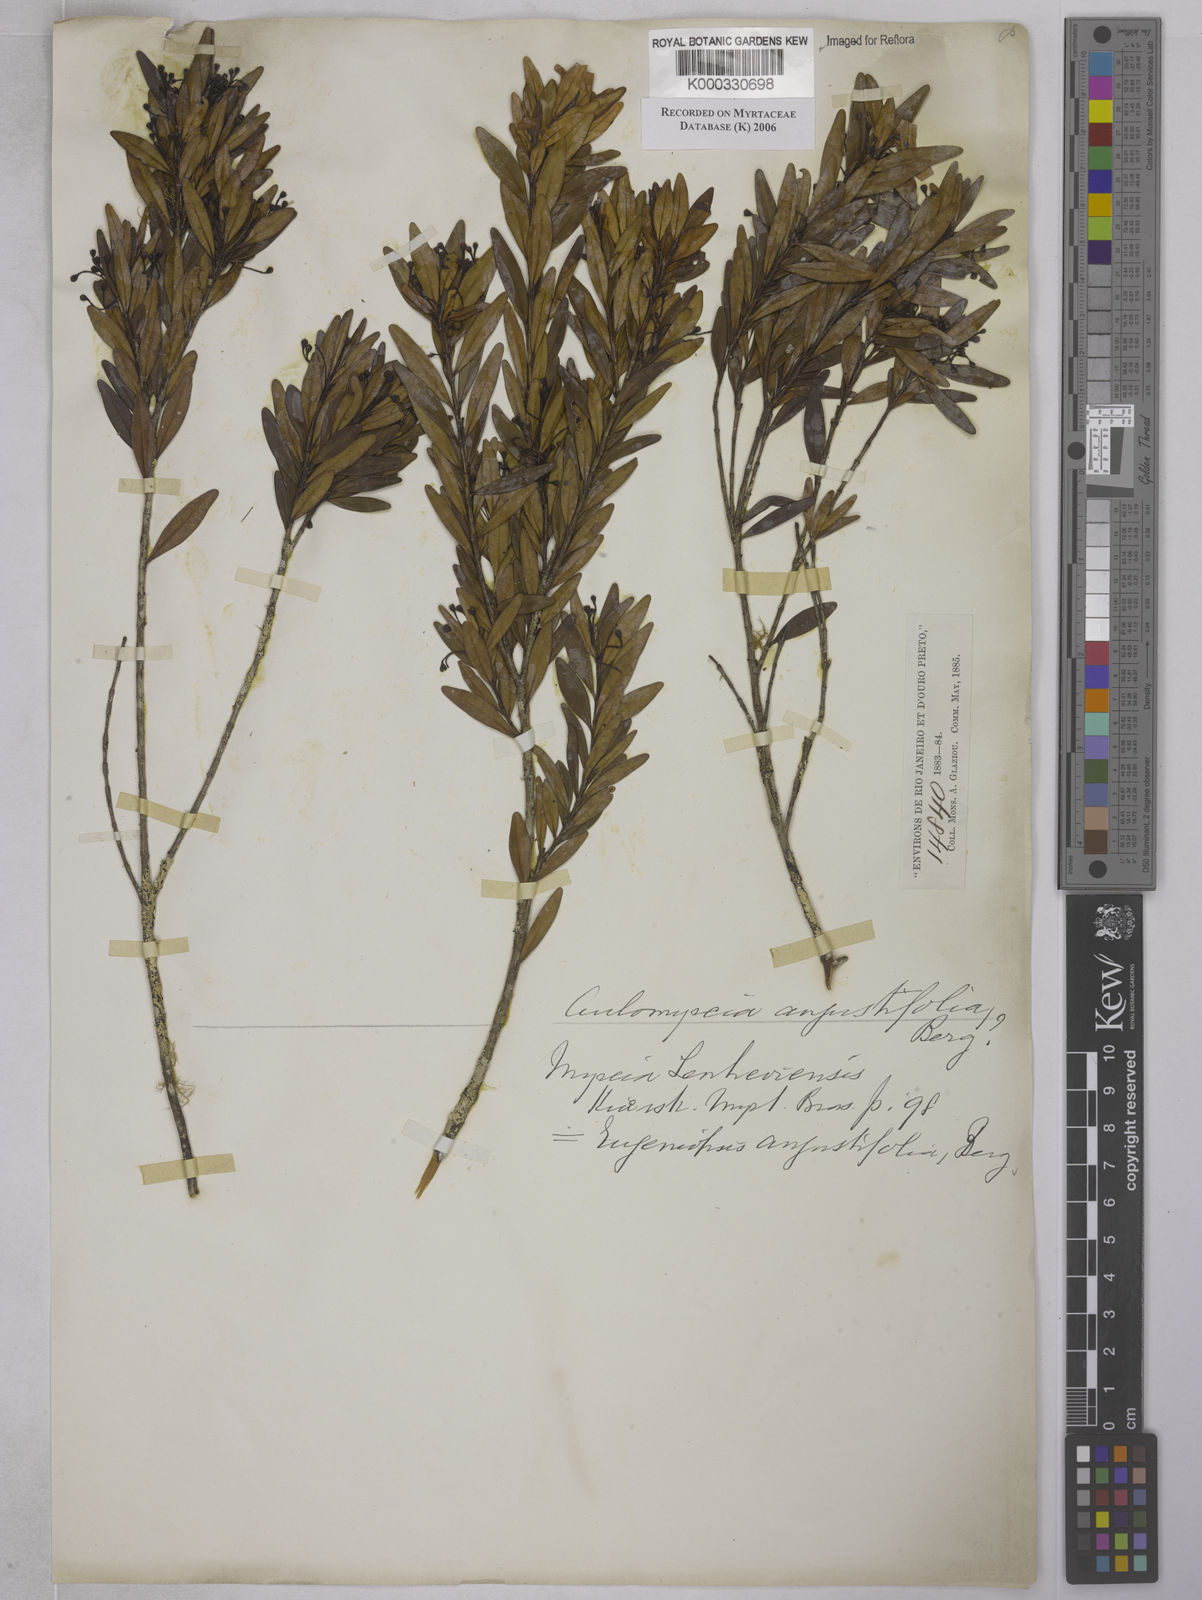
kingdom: Plantae
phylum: Tracheophyta
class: Magnoliopsida
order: Myrtales
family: Myrtaceae
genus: Myrcia
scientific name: Myrcia lenheirensis
